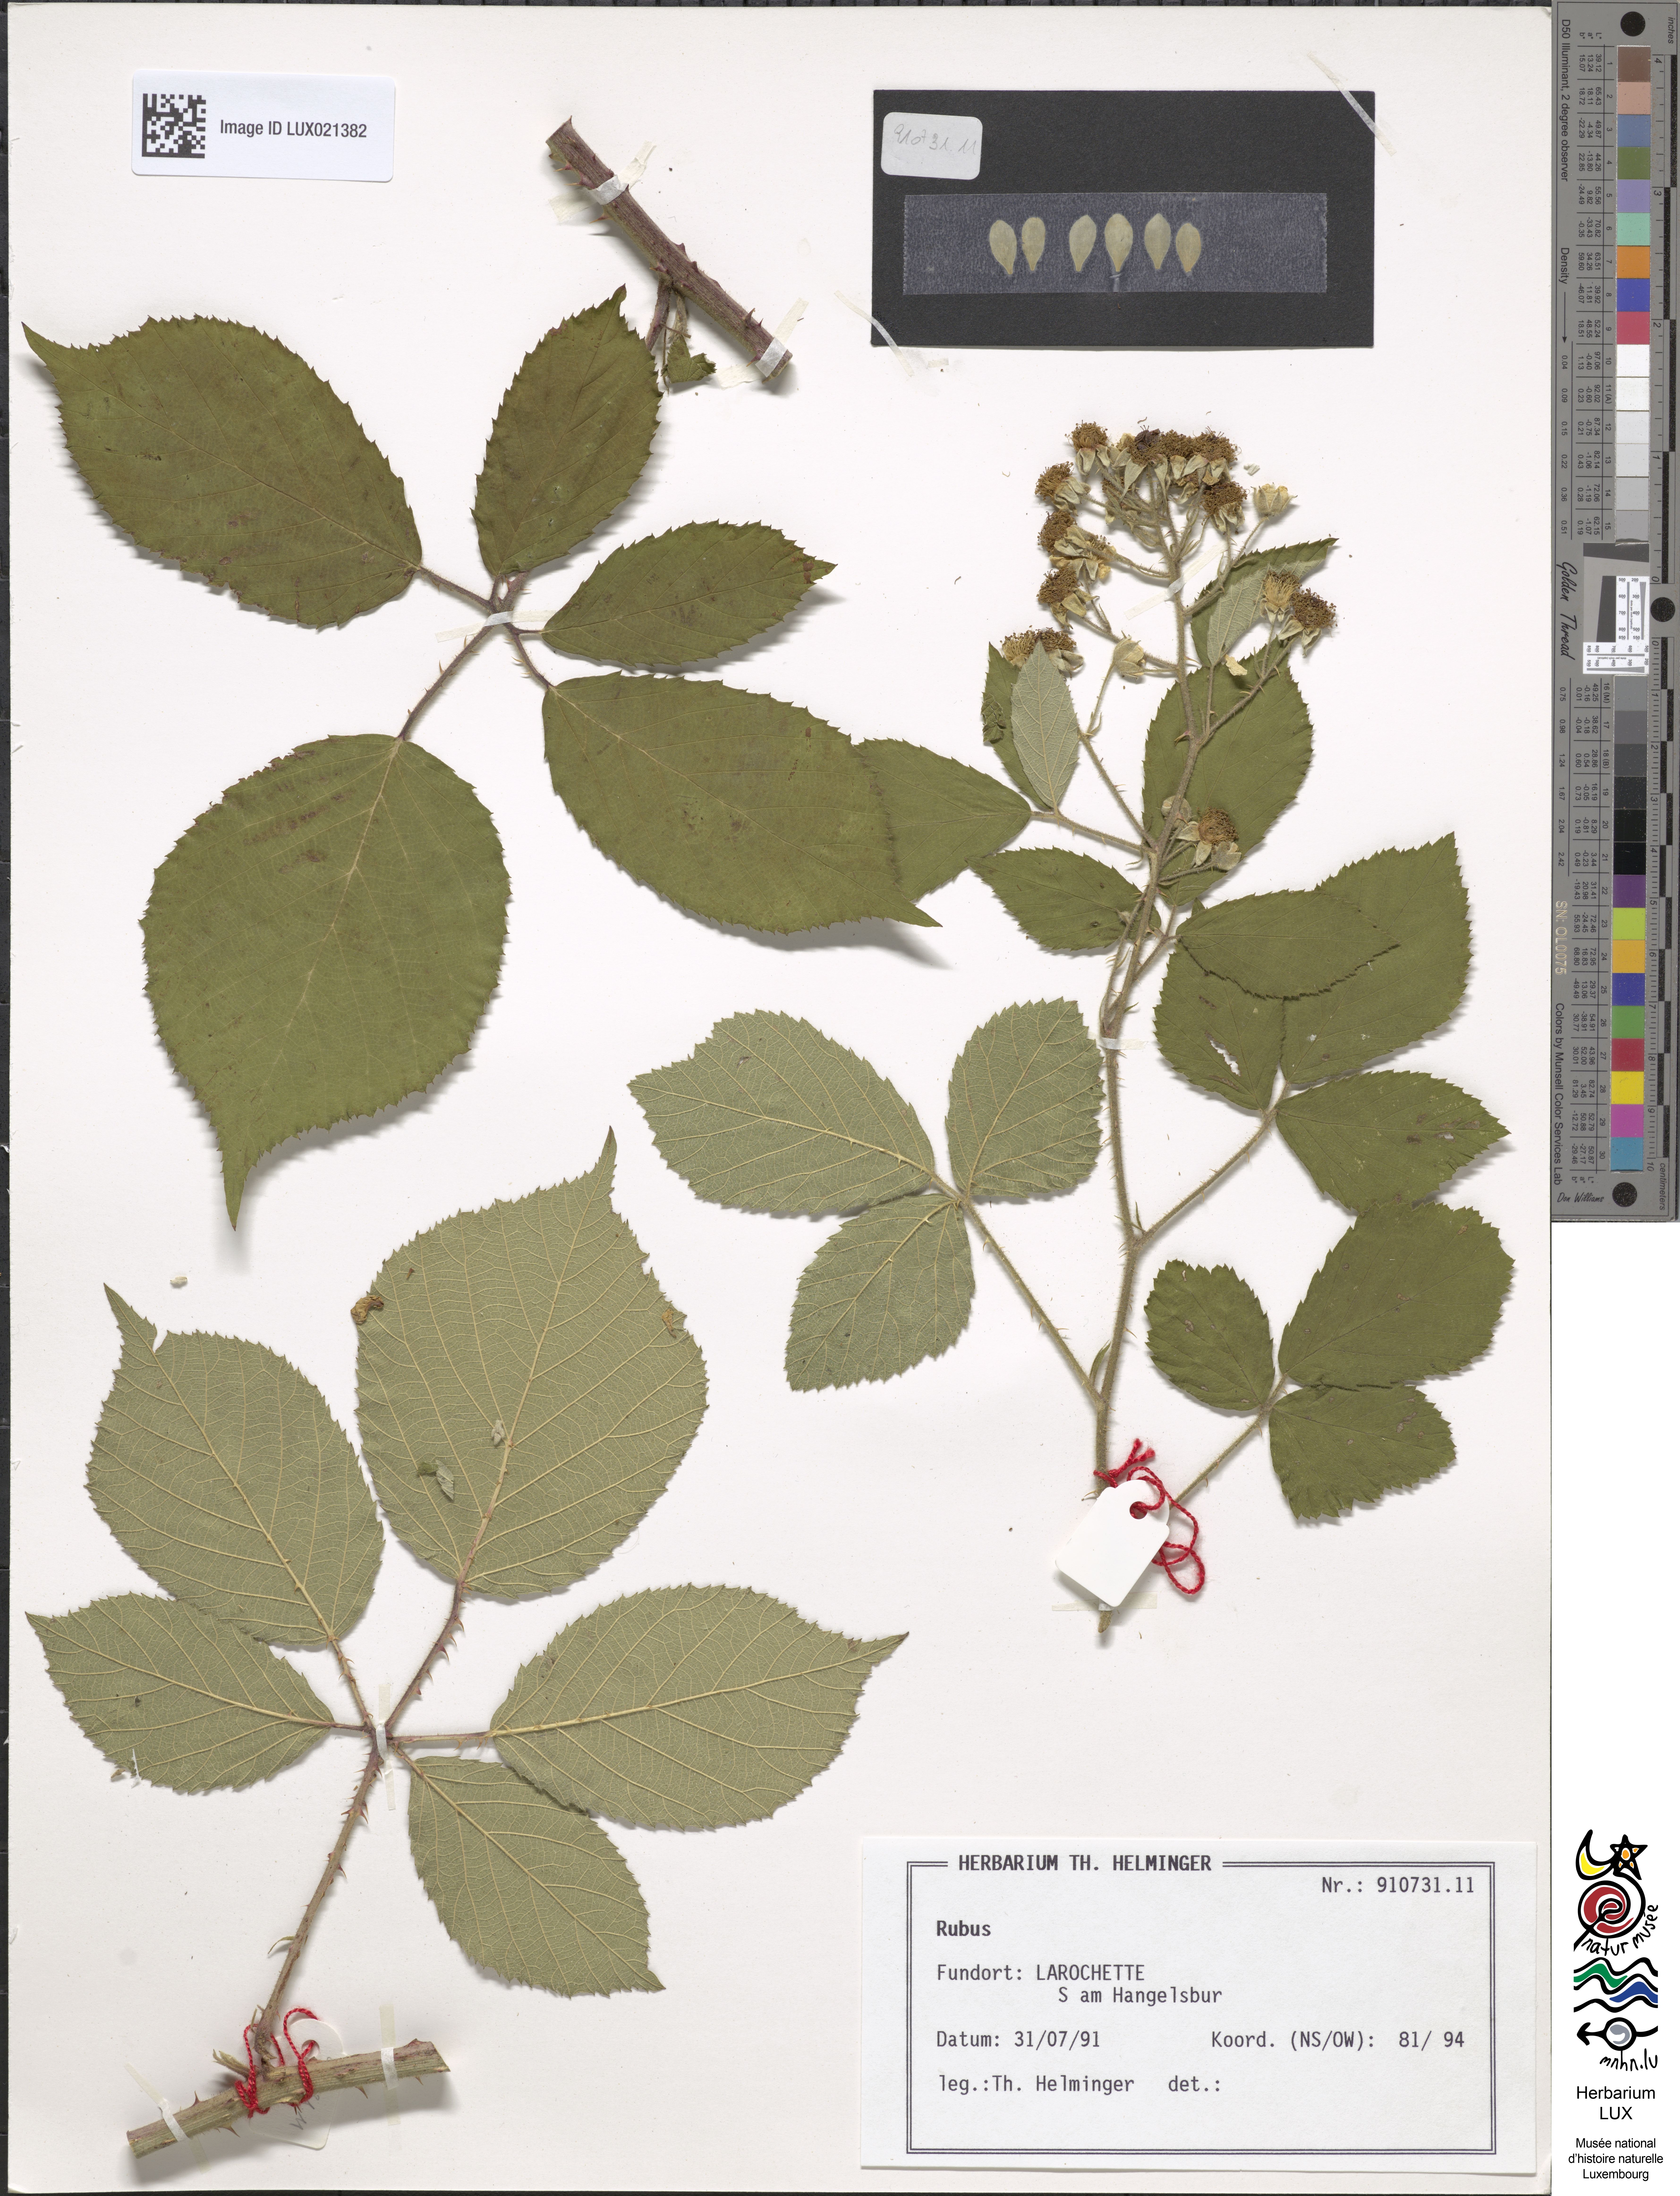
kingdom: Plantae
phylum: Tracheophyta
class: Magnoliopsida
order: Rosales
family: Rosaceae
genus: Rubus
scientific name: Rubus
